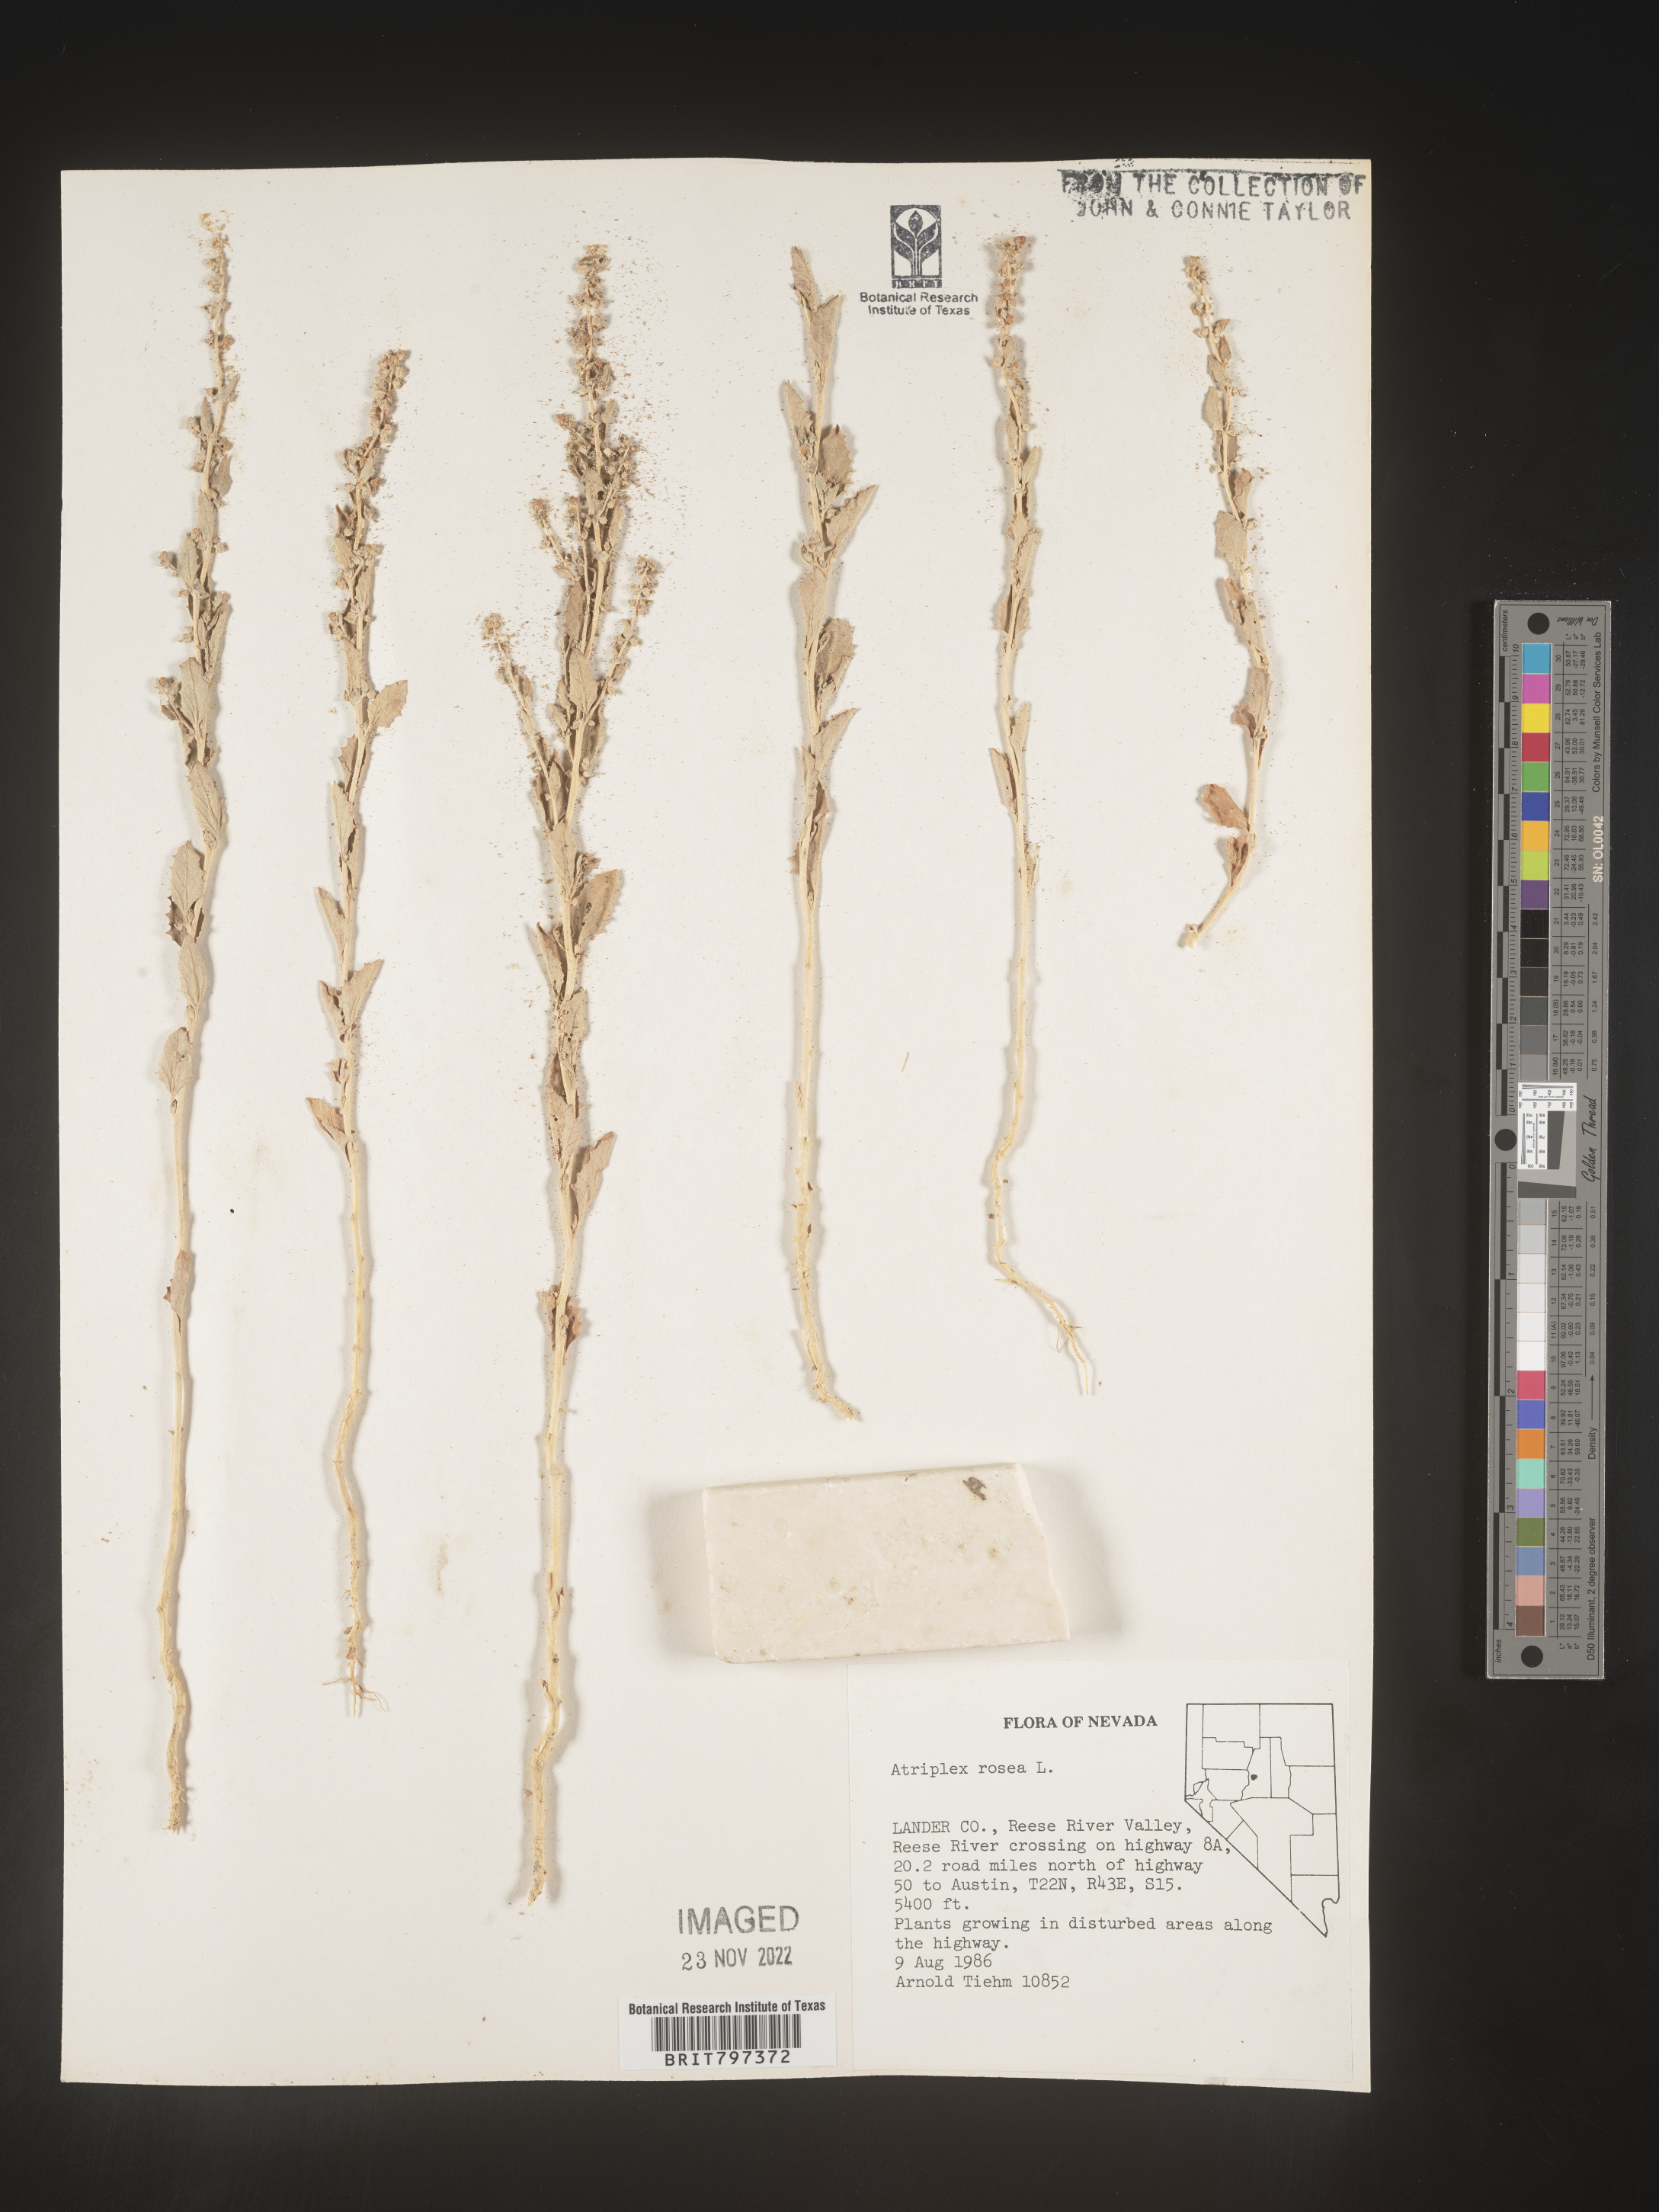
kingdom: Plantae
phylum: Tracheophyta
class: Magnoliopsida
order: Caryophyllales
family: Amaranthaceae
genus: Atriplex
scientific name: Atriplex rosea
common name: Tumbling saltweed
